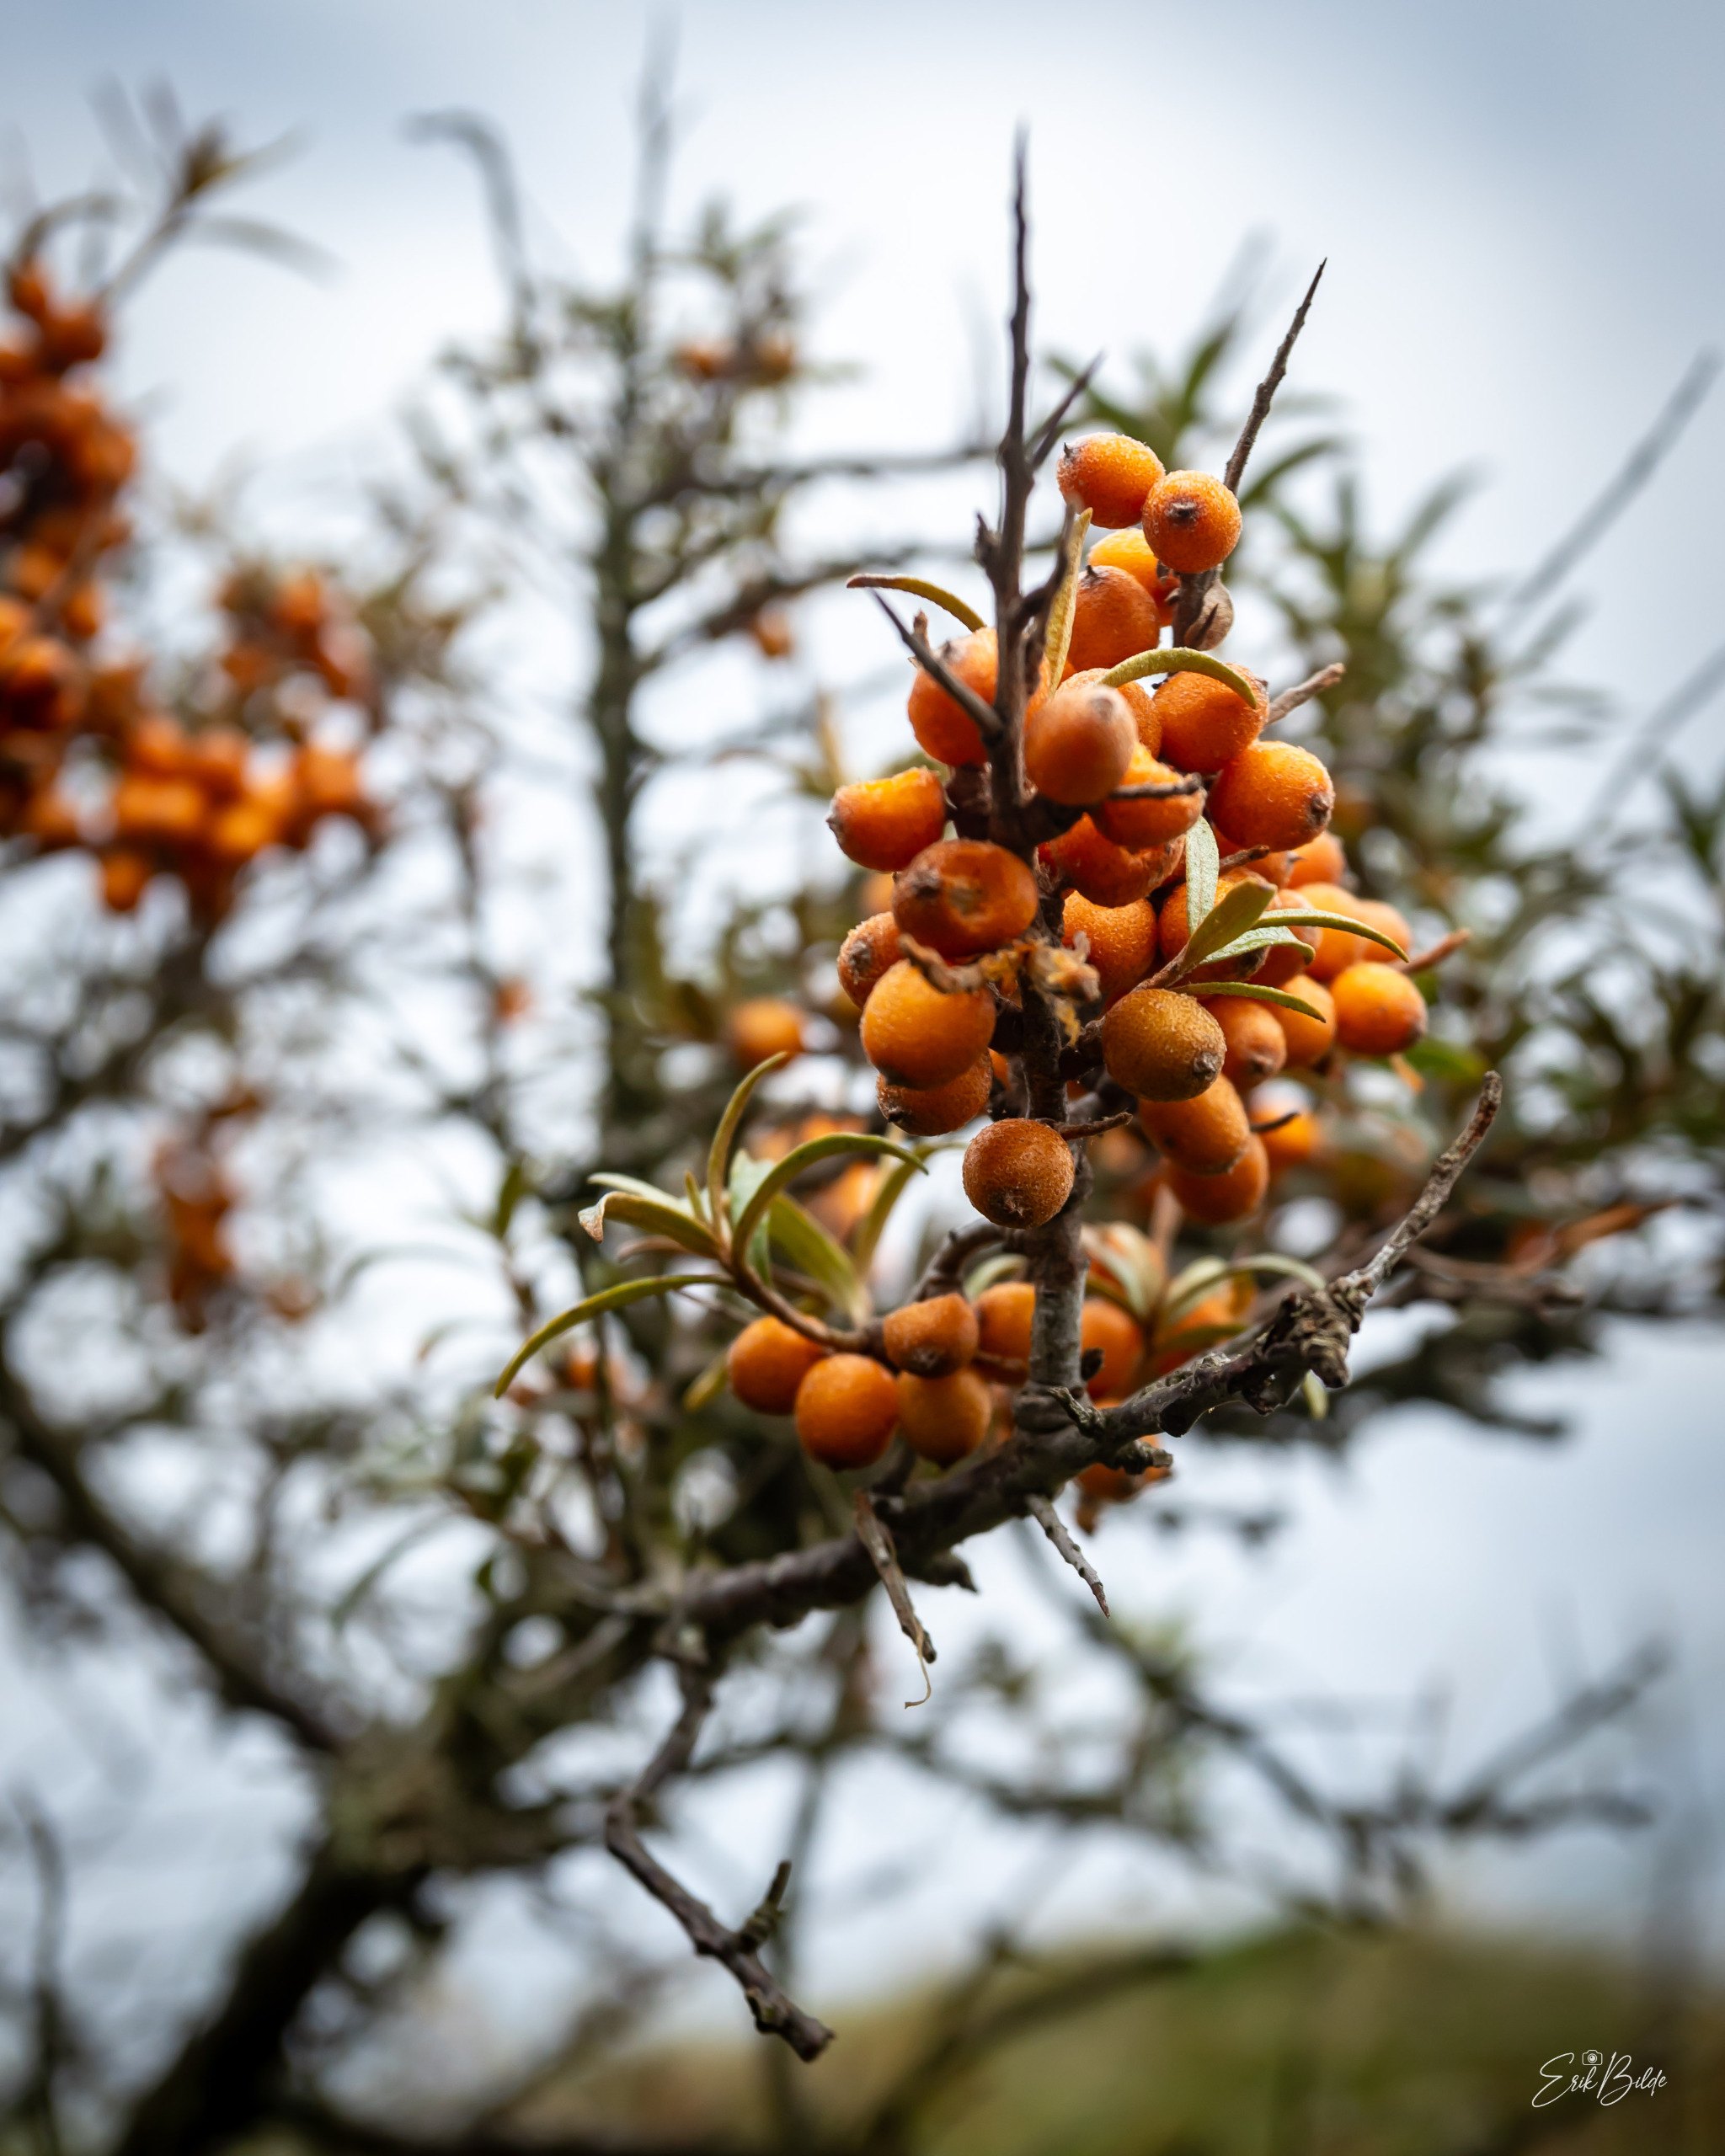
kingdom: Plantae
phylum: Tracheophyta
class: Magnoliopsida
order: Rosales
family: Elaeagnaceae
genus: Hippophae
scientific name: Hippophae rhamnoides
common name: Havtorn
